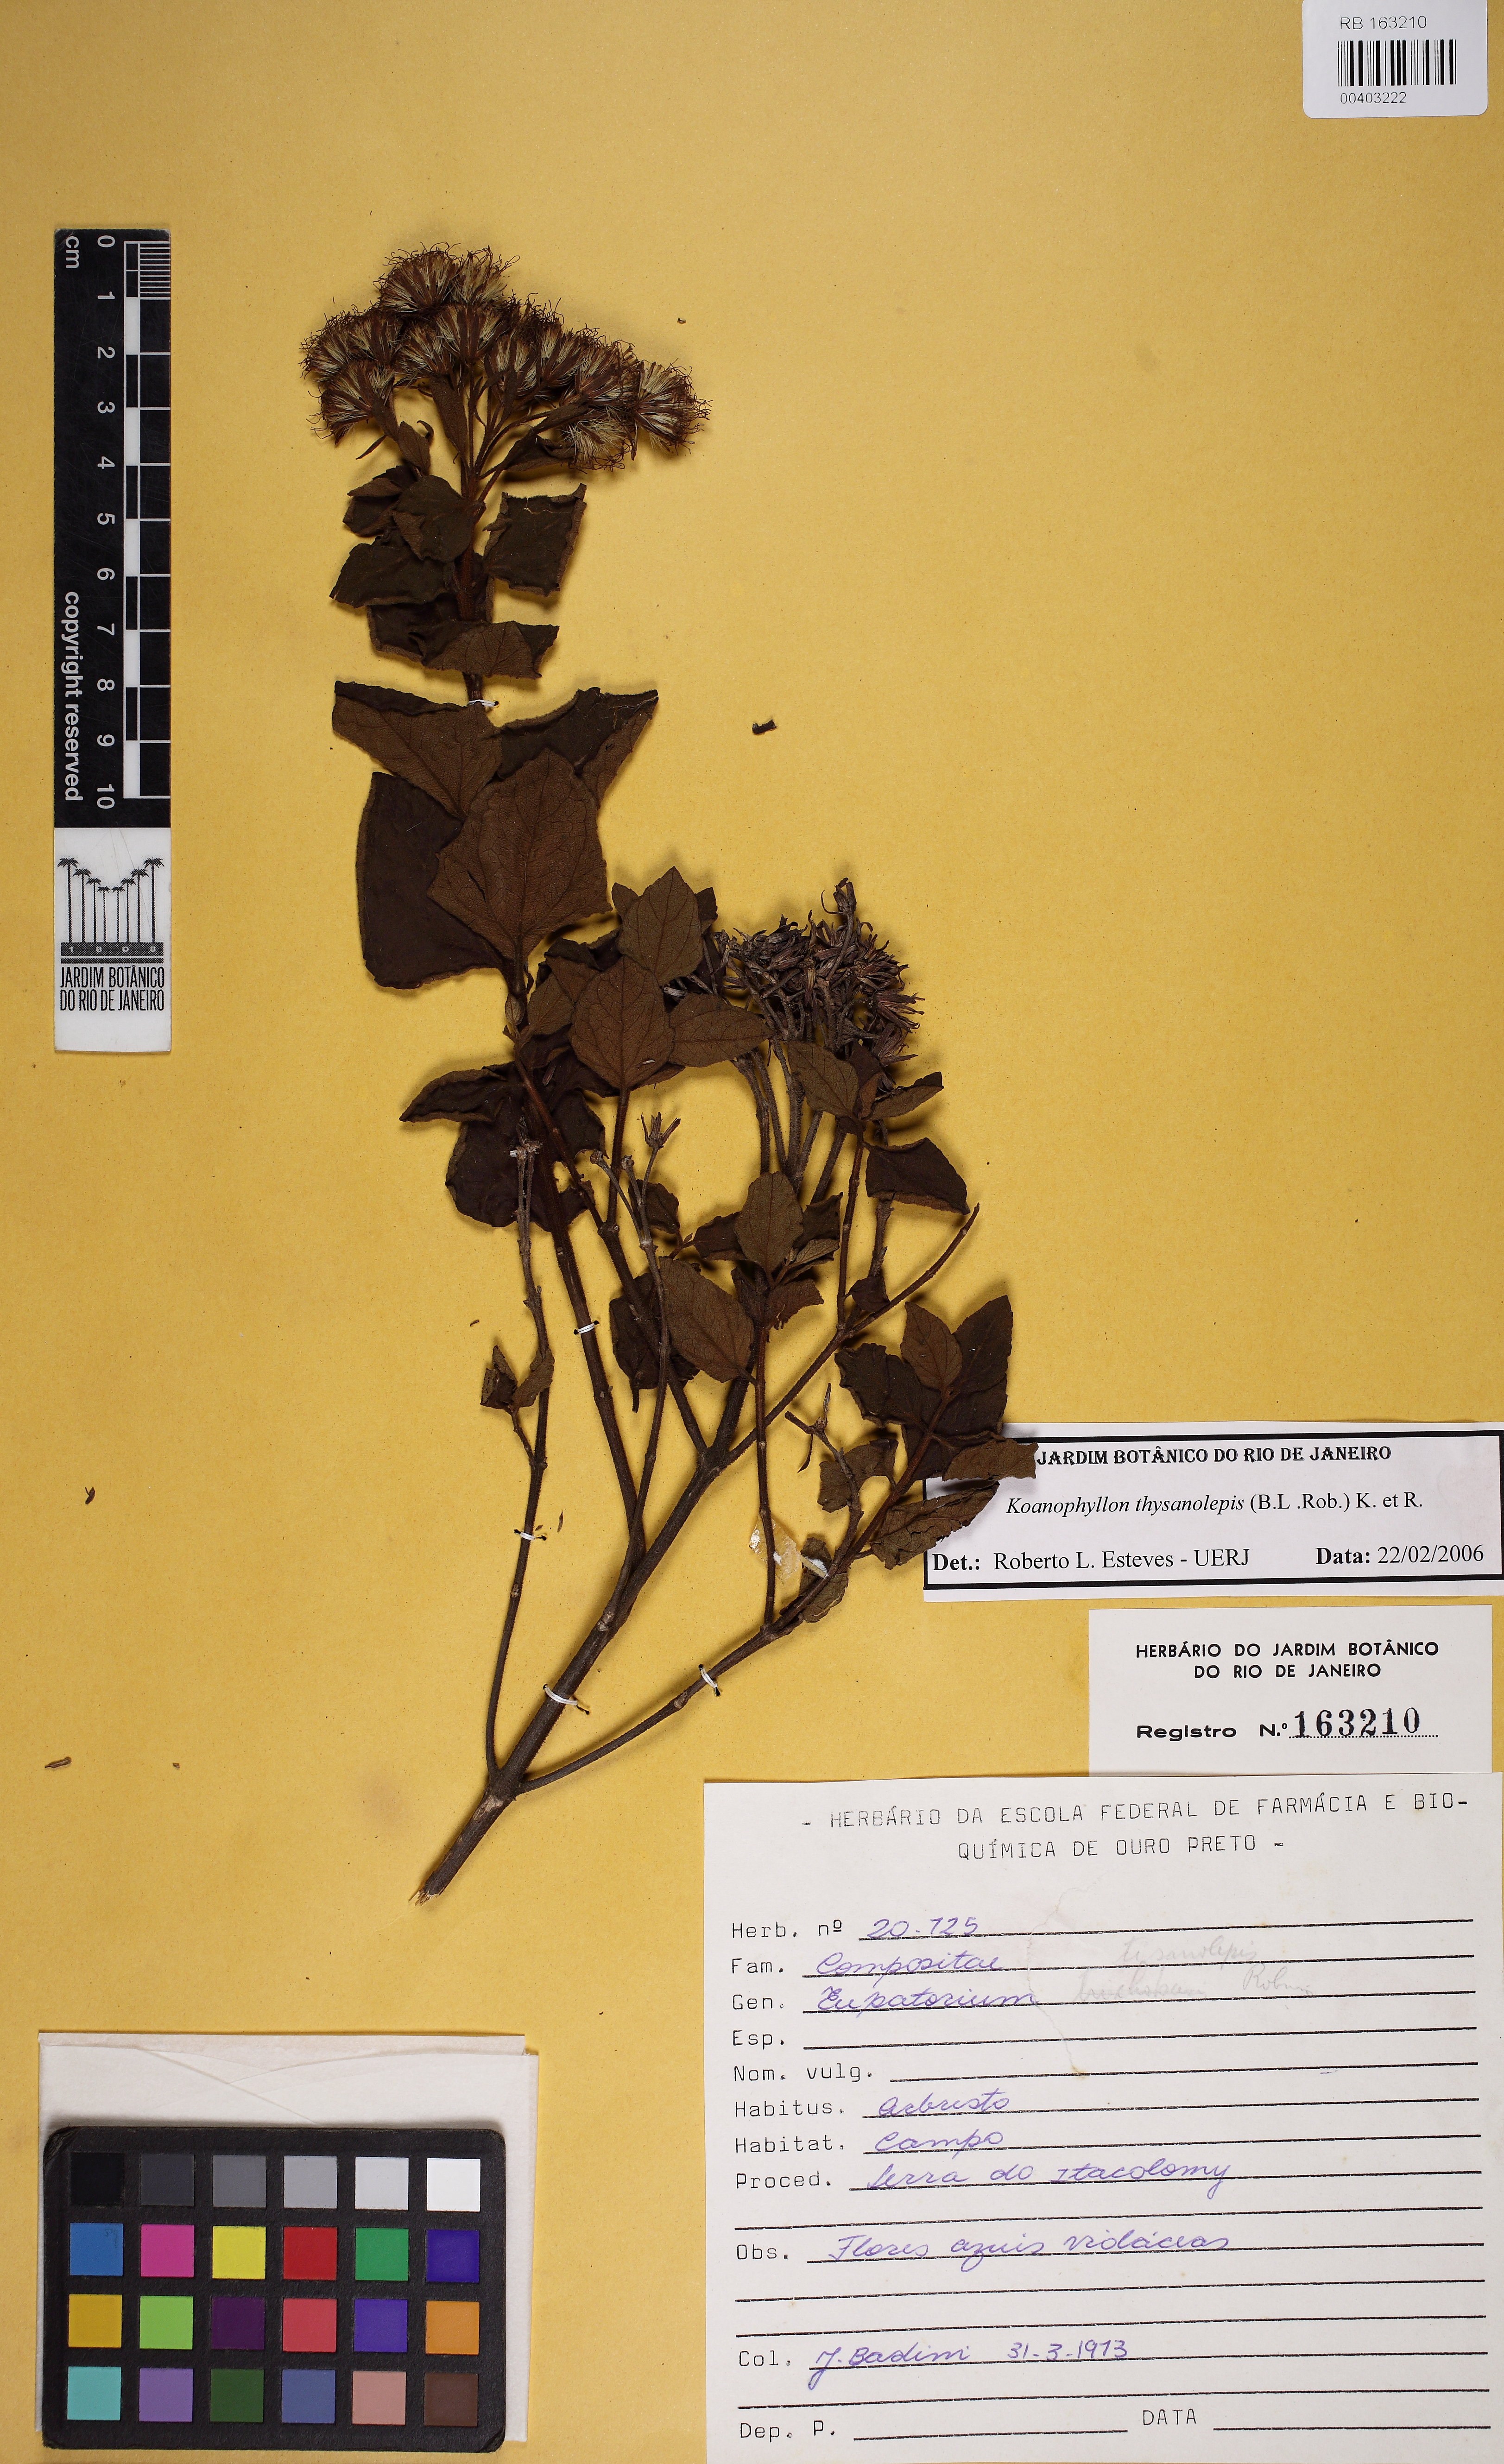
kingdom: Plantae
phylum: Tracheophyta
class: Magnoliopsida
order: Asterales
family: Asteraceae
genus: Koanophyllon
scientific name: Koanophyllon thysanolepis
